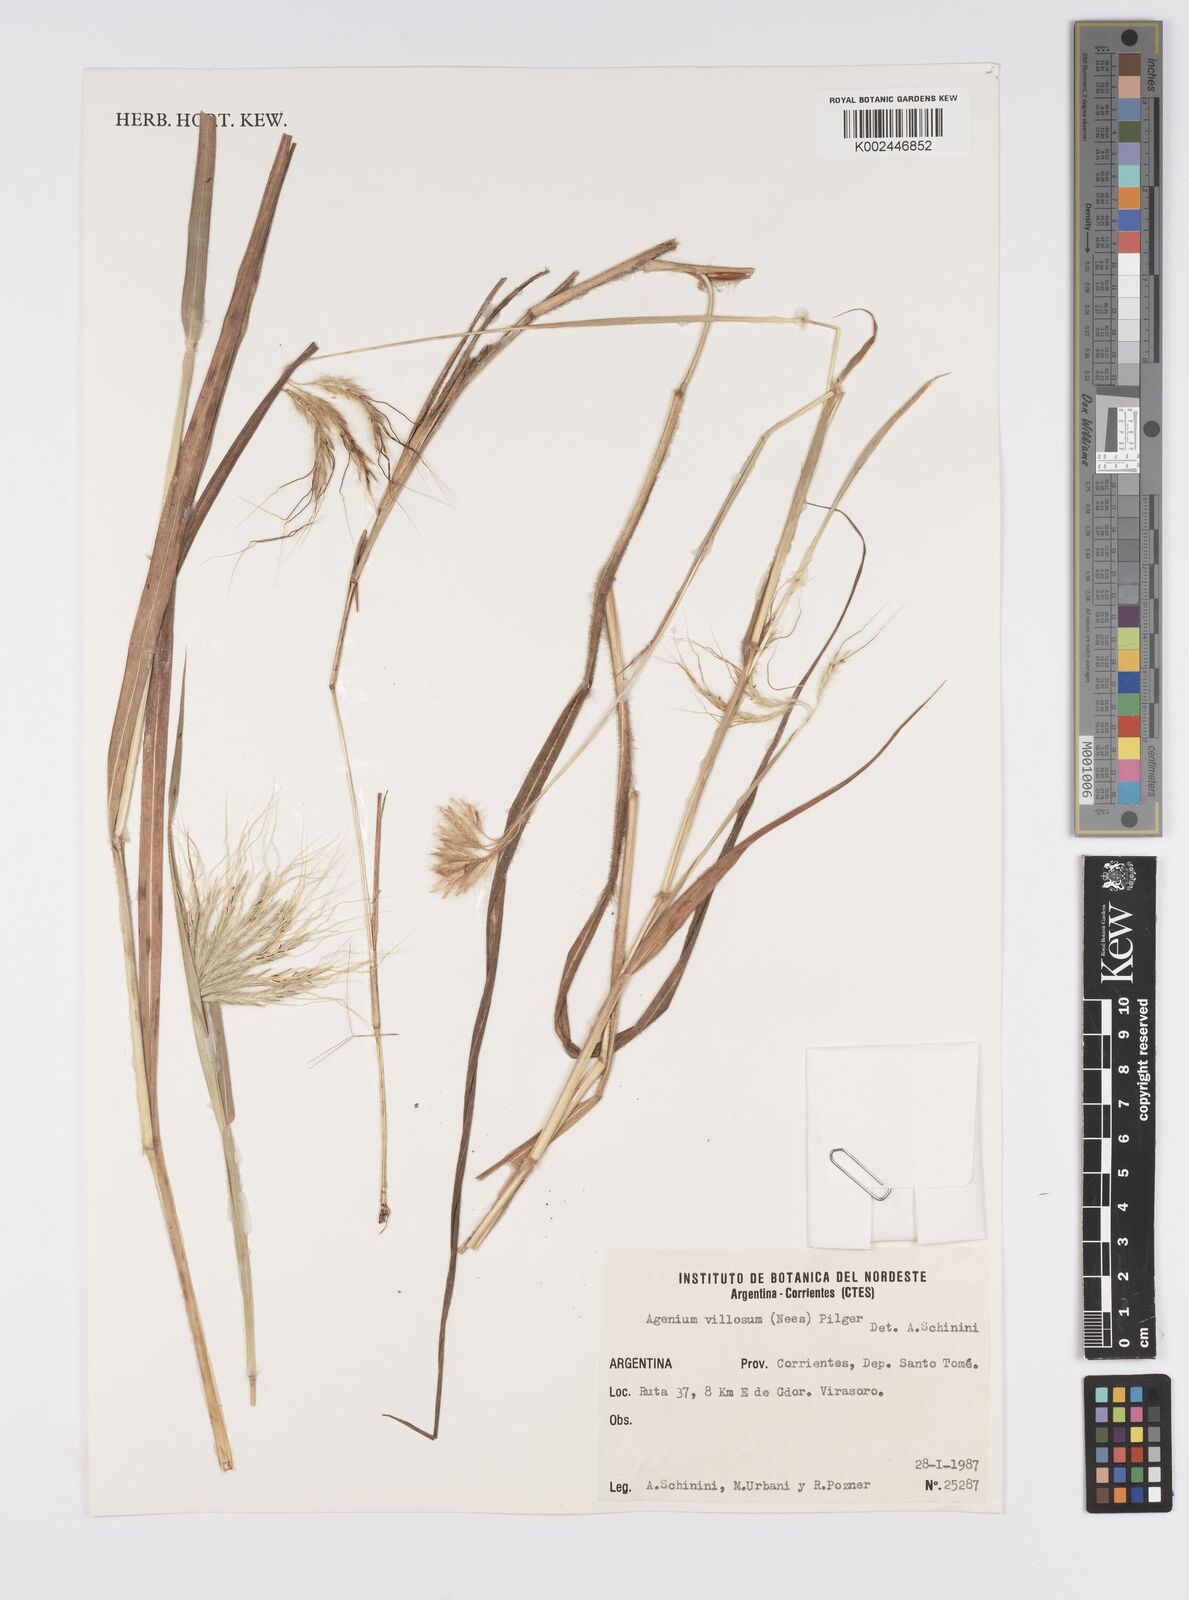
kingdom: Plantae
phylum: Tracheophyta
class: Liliopsida
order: Poales
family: Poaceae
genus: Agenium
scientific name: Agenium villosum
